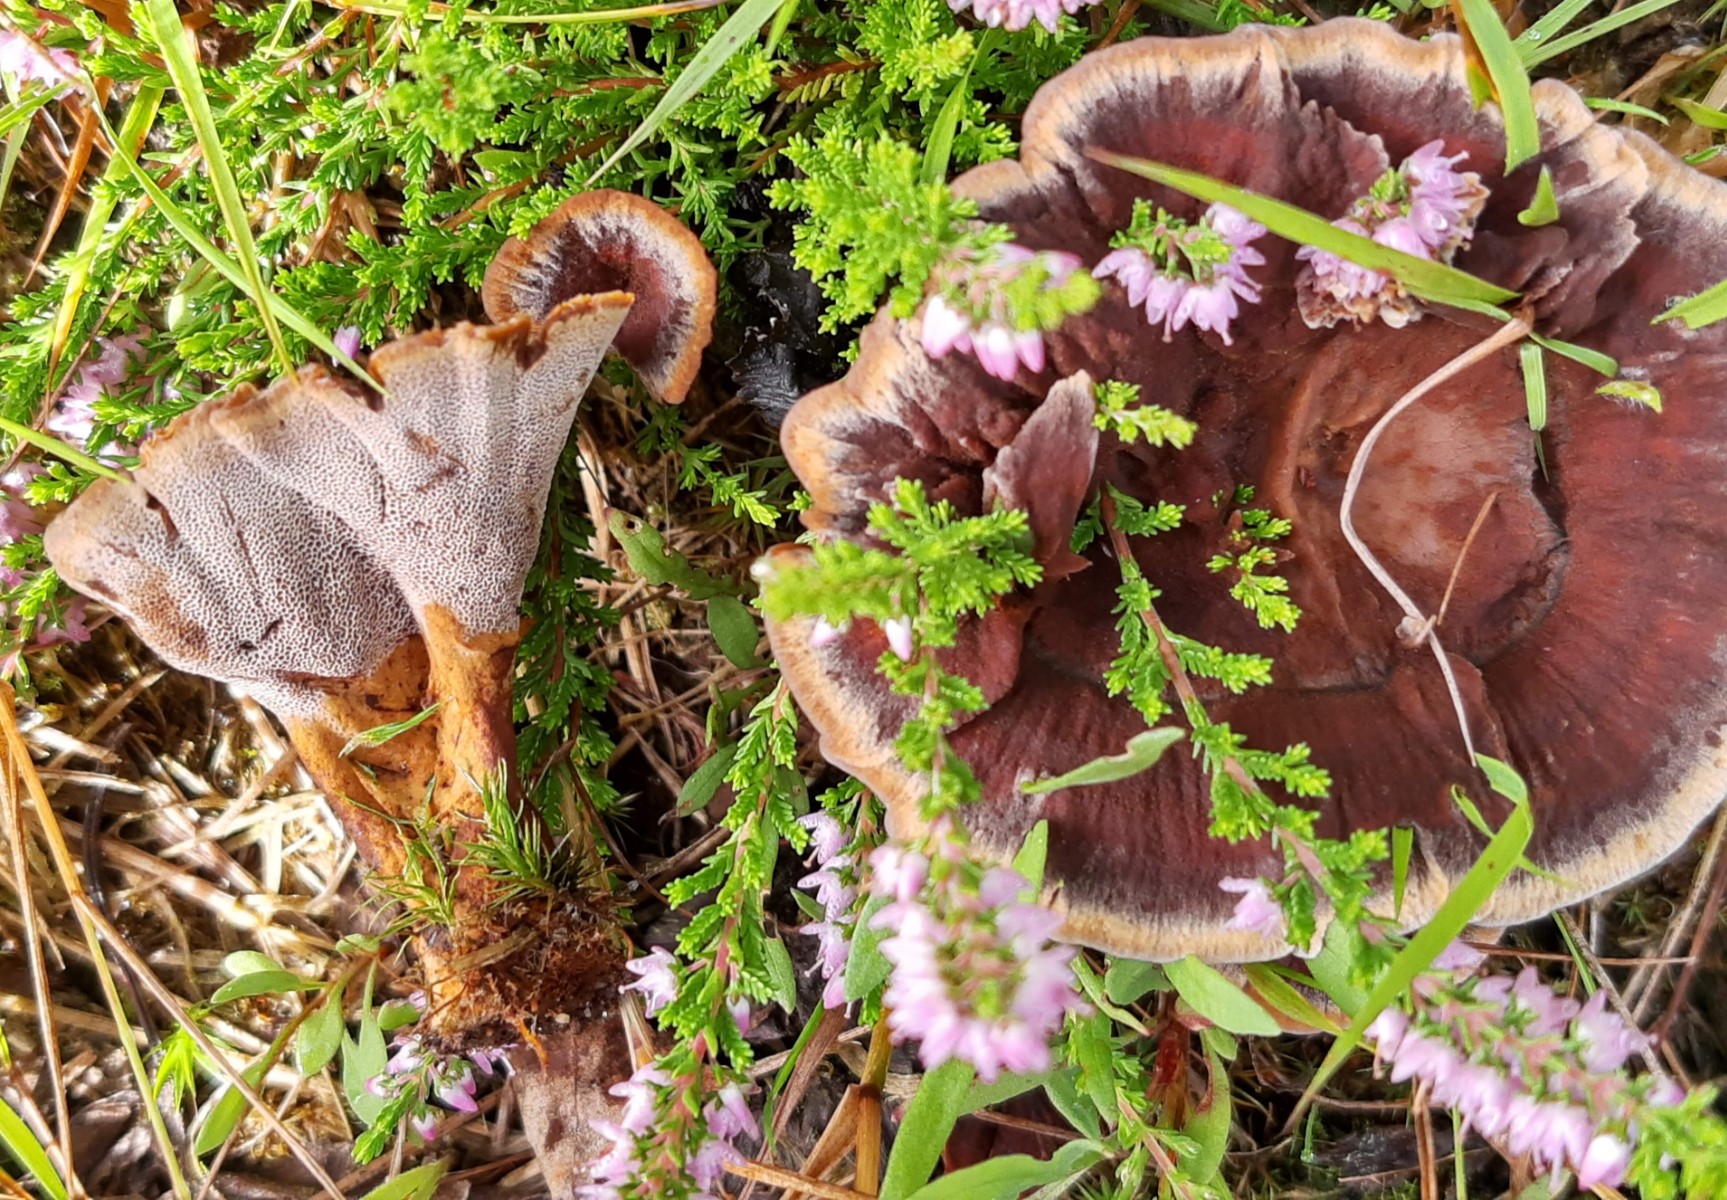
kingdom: Fungi
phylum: Basidiomycota
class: Agaricomycetes
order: Hymenochaetales
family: Hymenochaetaceae
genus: Coltricia
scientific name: Coltricia perennis
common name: almindelig sandporesvamp
